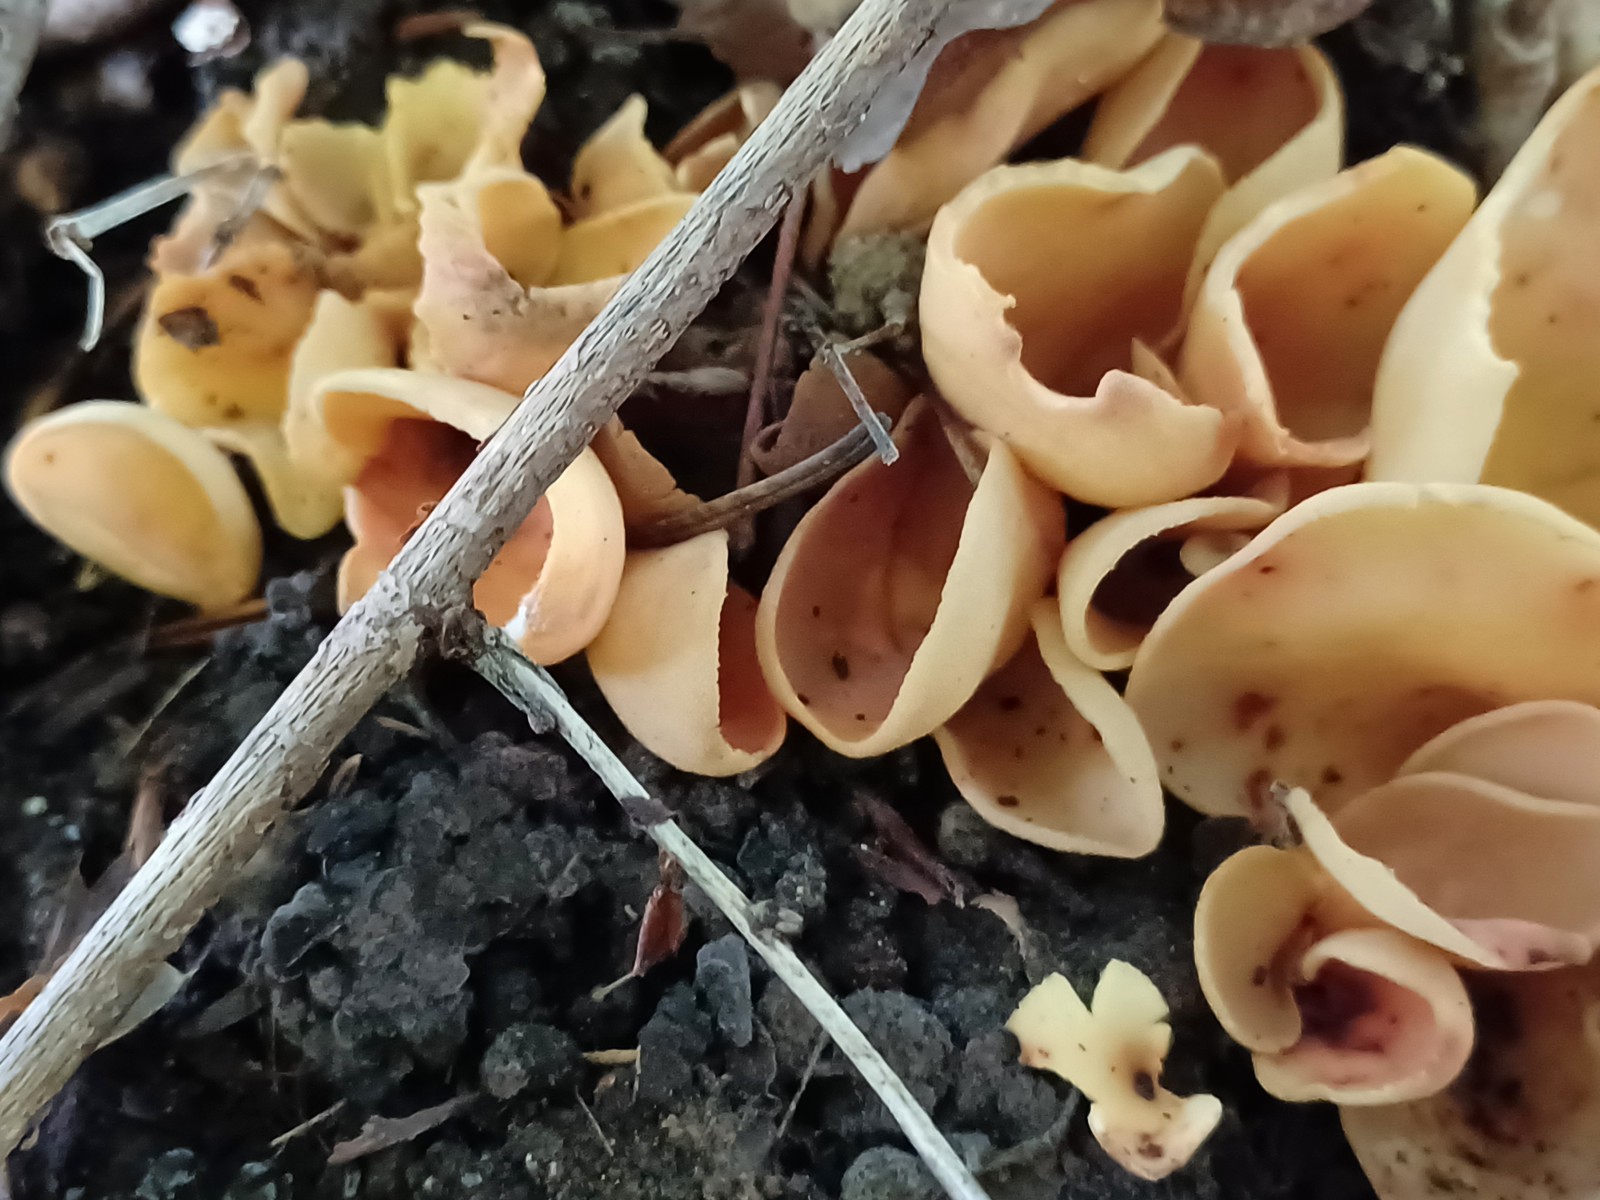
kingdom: Fungi
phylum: Ascomycota
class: Pezizomycetes
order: Pezizales
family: Otideaceae
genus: Otidea
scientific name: Otidea onotica
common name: æsel-ørebæger
